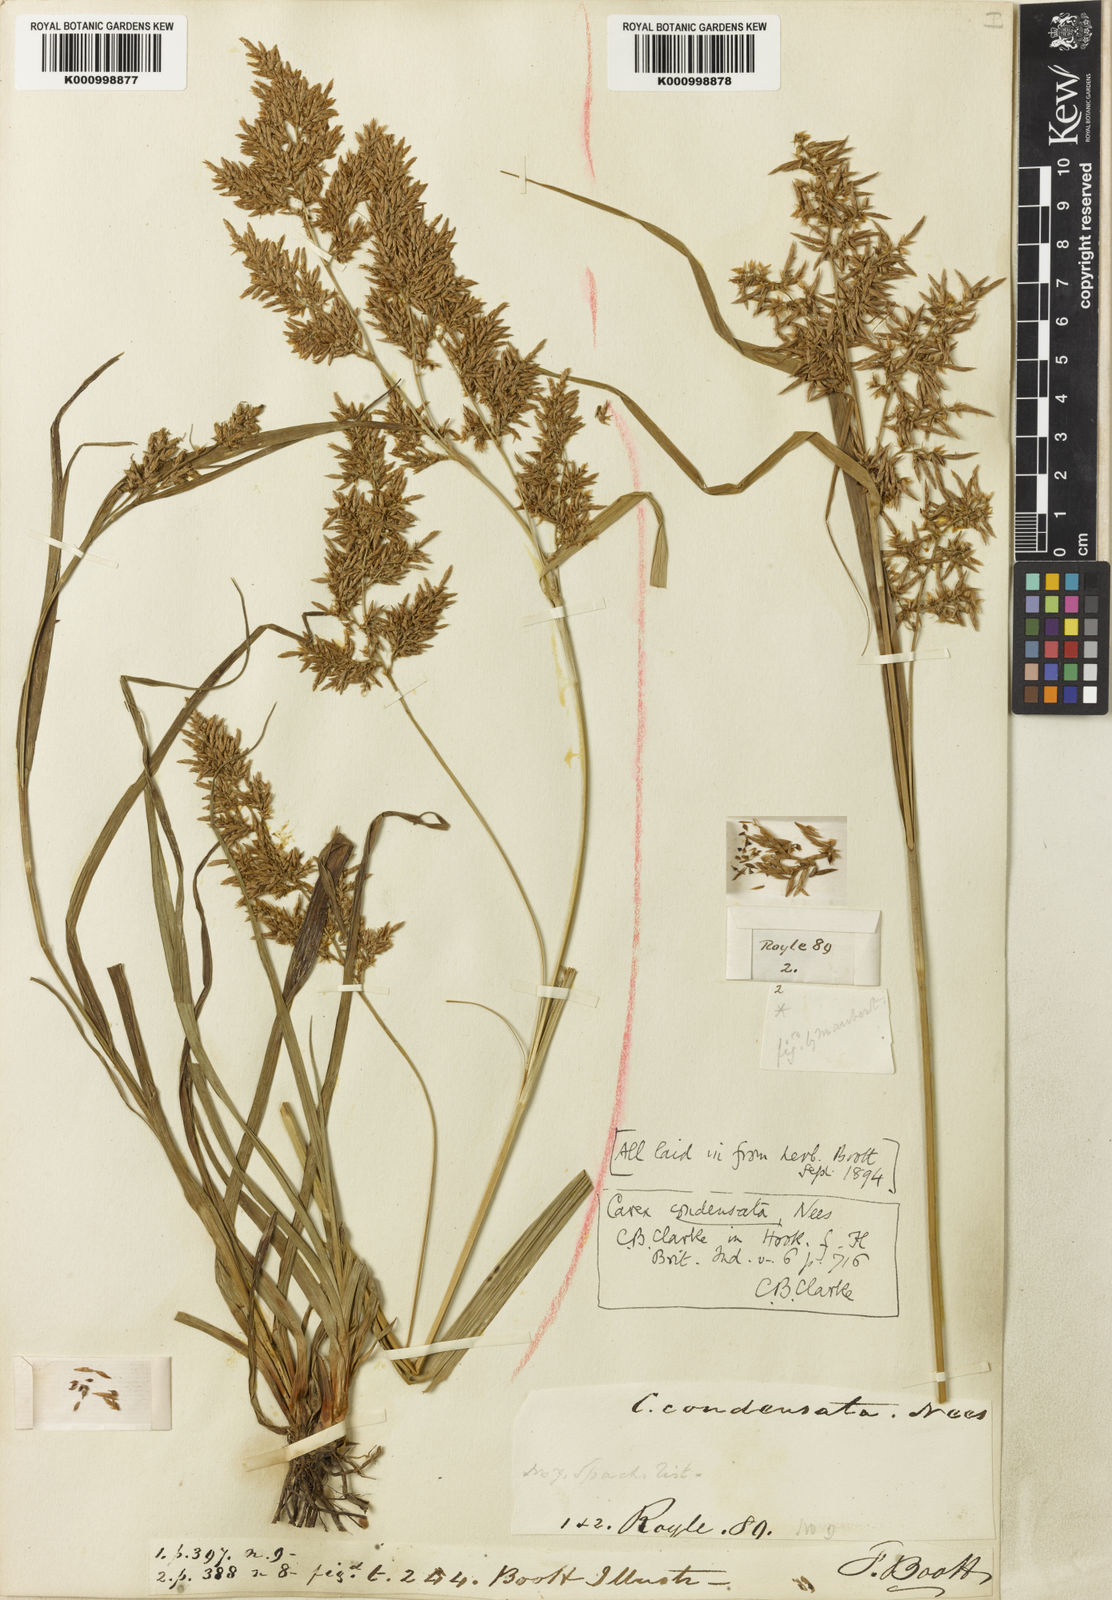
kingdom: Plantae
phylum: Tracheophyta
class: Liliopsida
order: Poales
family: Cyperaceae
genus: Carex
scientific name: Carex condensata
